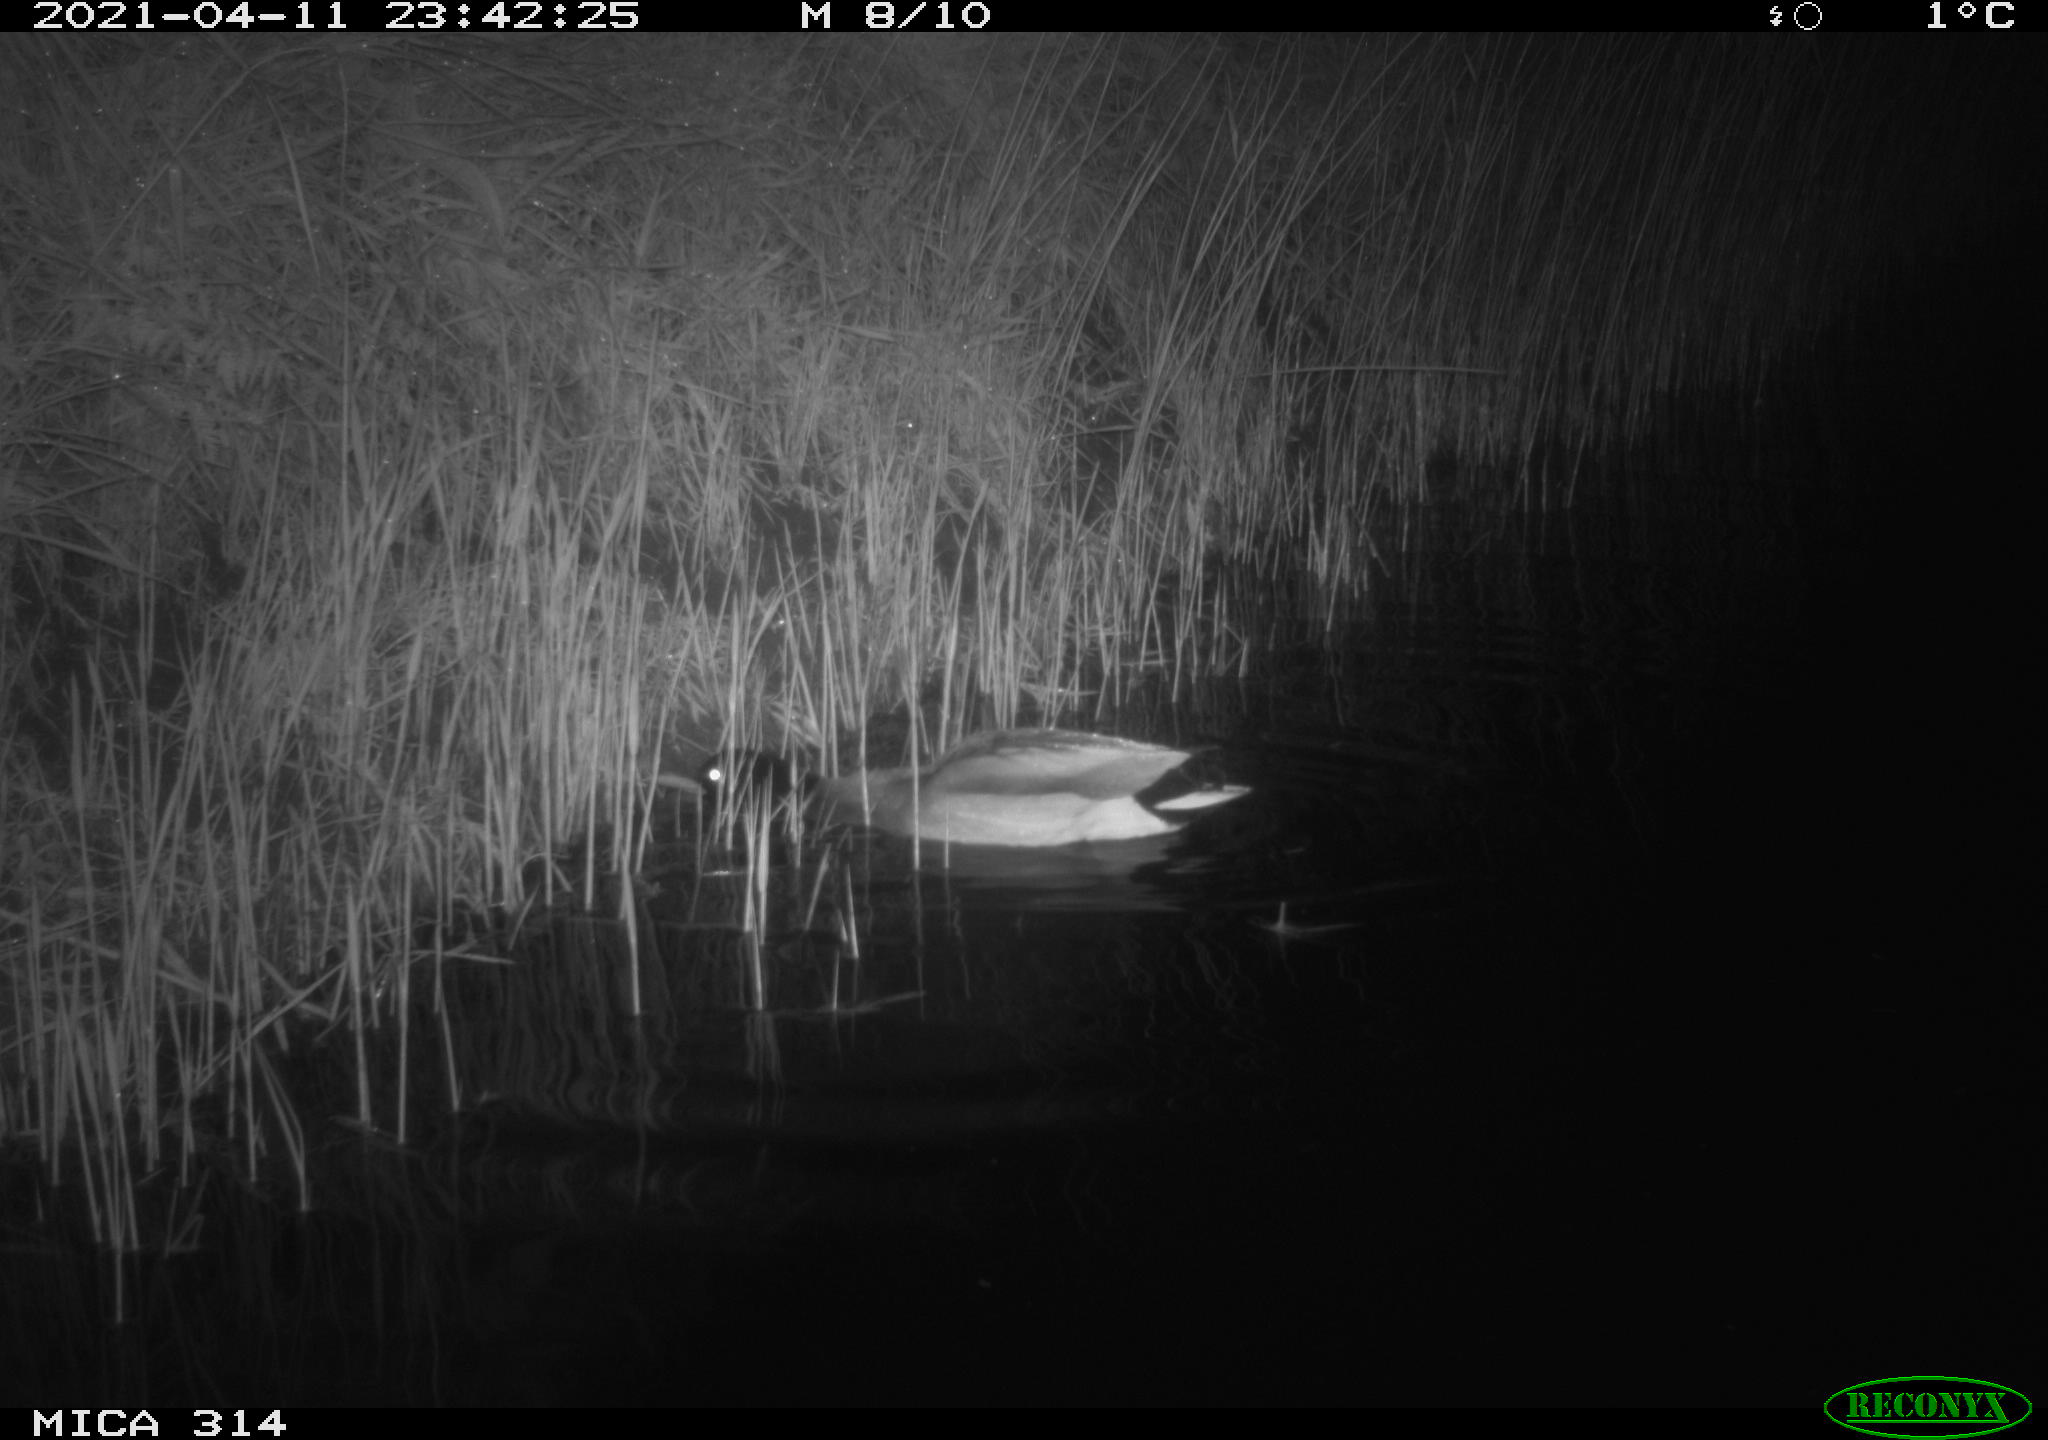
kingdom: Animalia
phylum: Chordata
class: Aves
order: Anseriformes
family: Anatidae
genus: Anas
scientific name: Anas platyrhynchos
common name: Mallard
